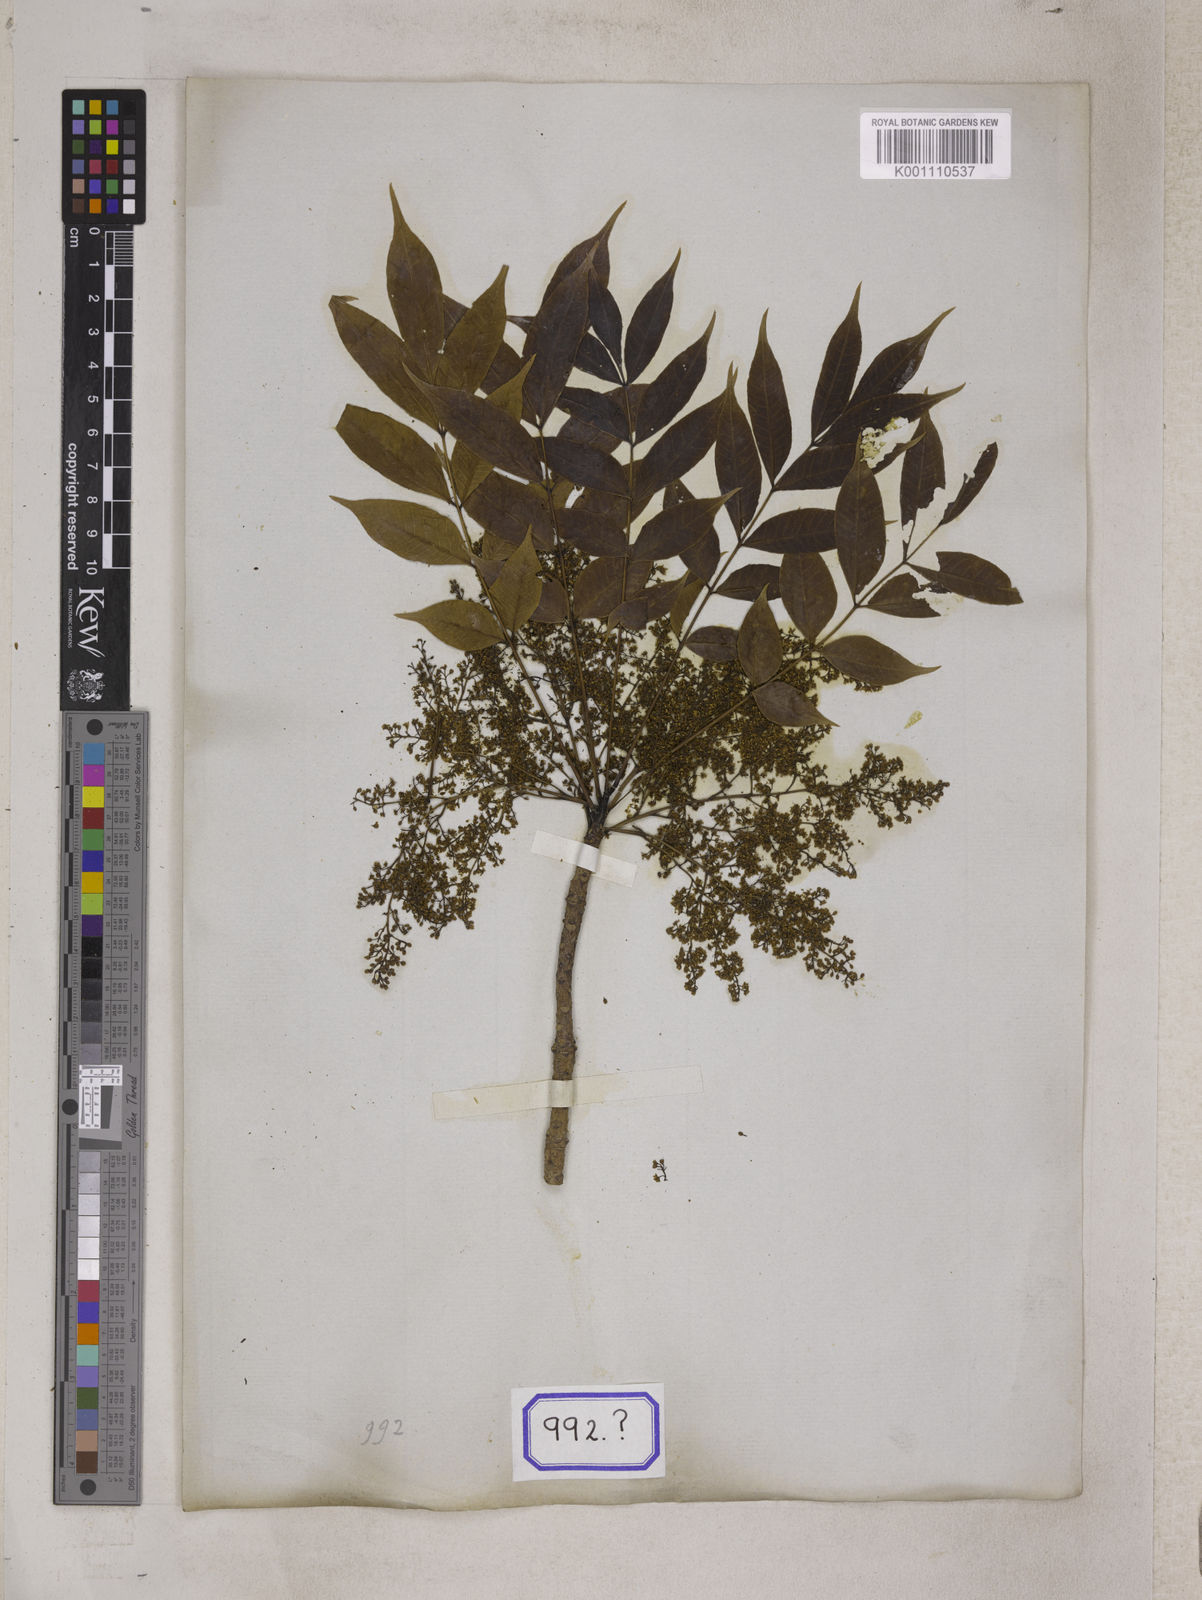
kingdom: Plantae
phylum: Tracheophyta
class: Magnoliopsida
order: Sapindales
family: Anacardiaceae
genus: Toxicodendron
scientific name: Toxicodendron succedaneum
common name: Wax tree
